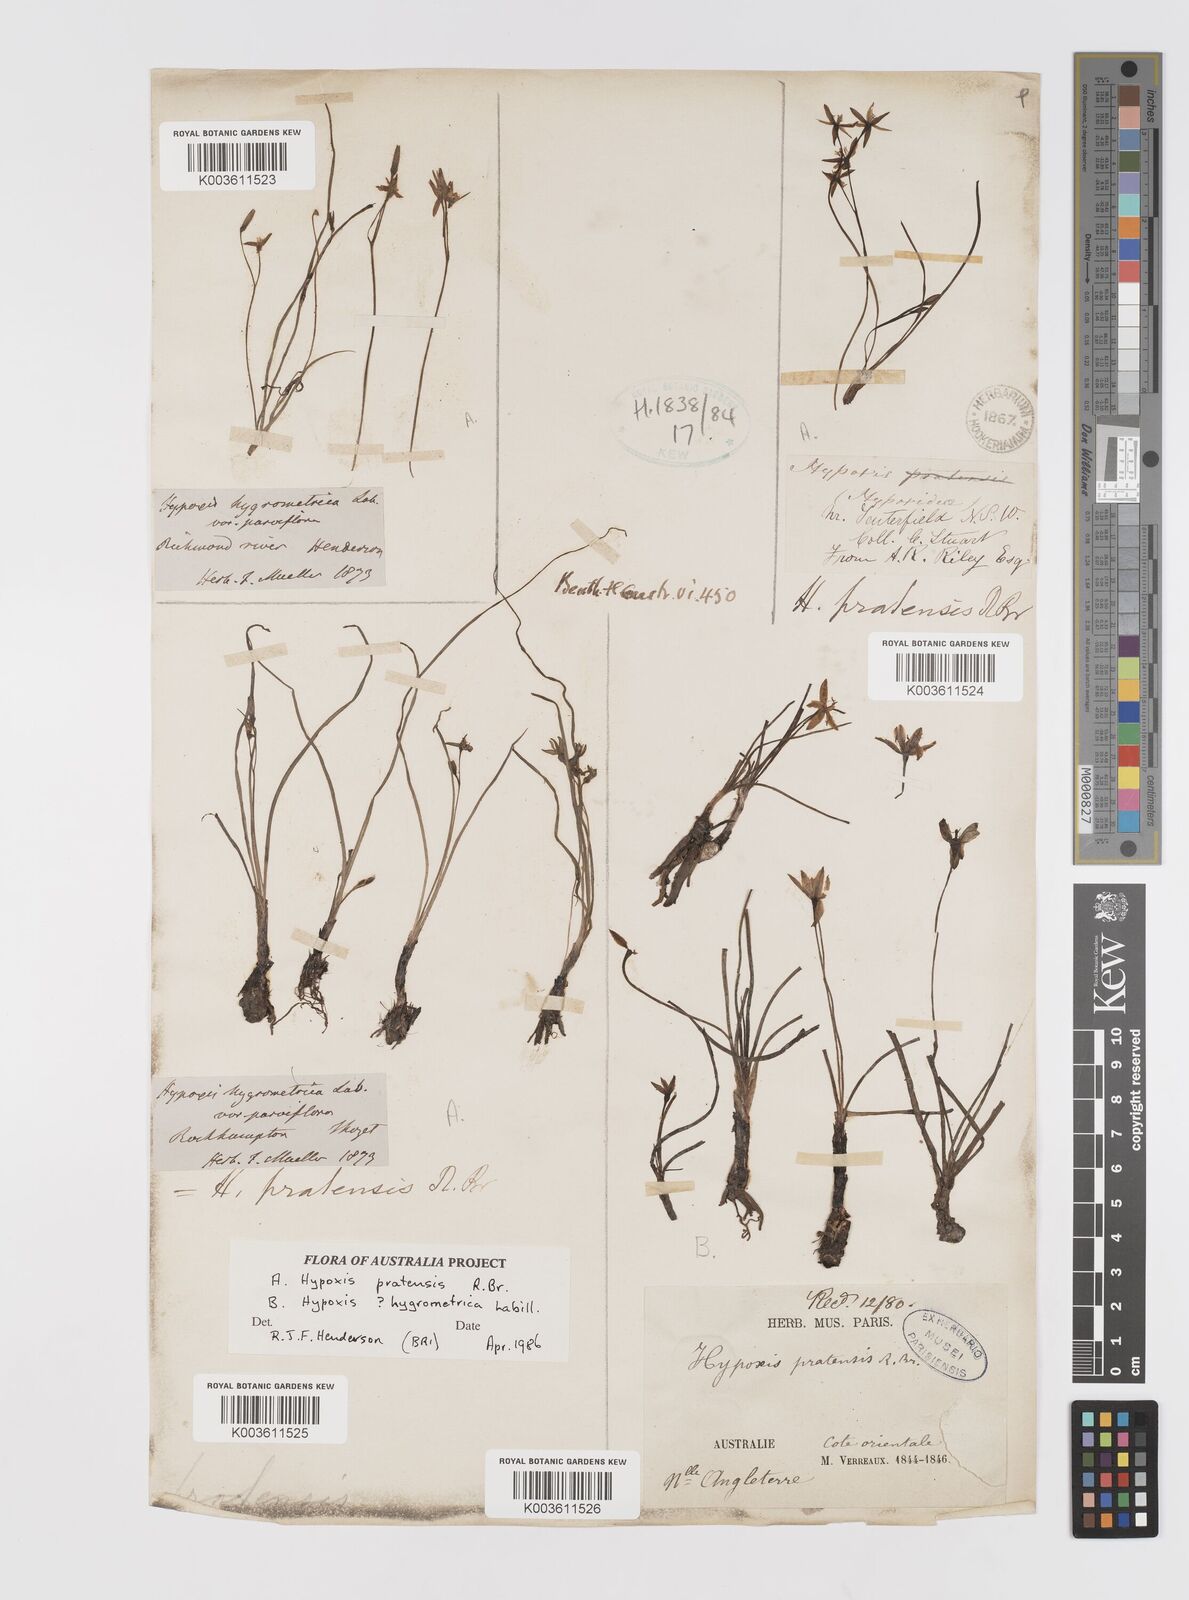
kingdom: Plantae
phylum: Tracheophyta
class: Liliopsida
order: Asparagales
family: Hypoxidaceae
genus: Hypoxis
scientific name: Hypoxis pratensis
